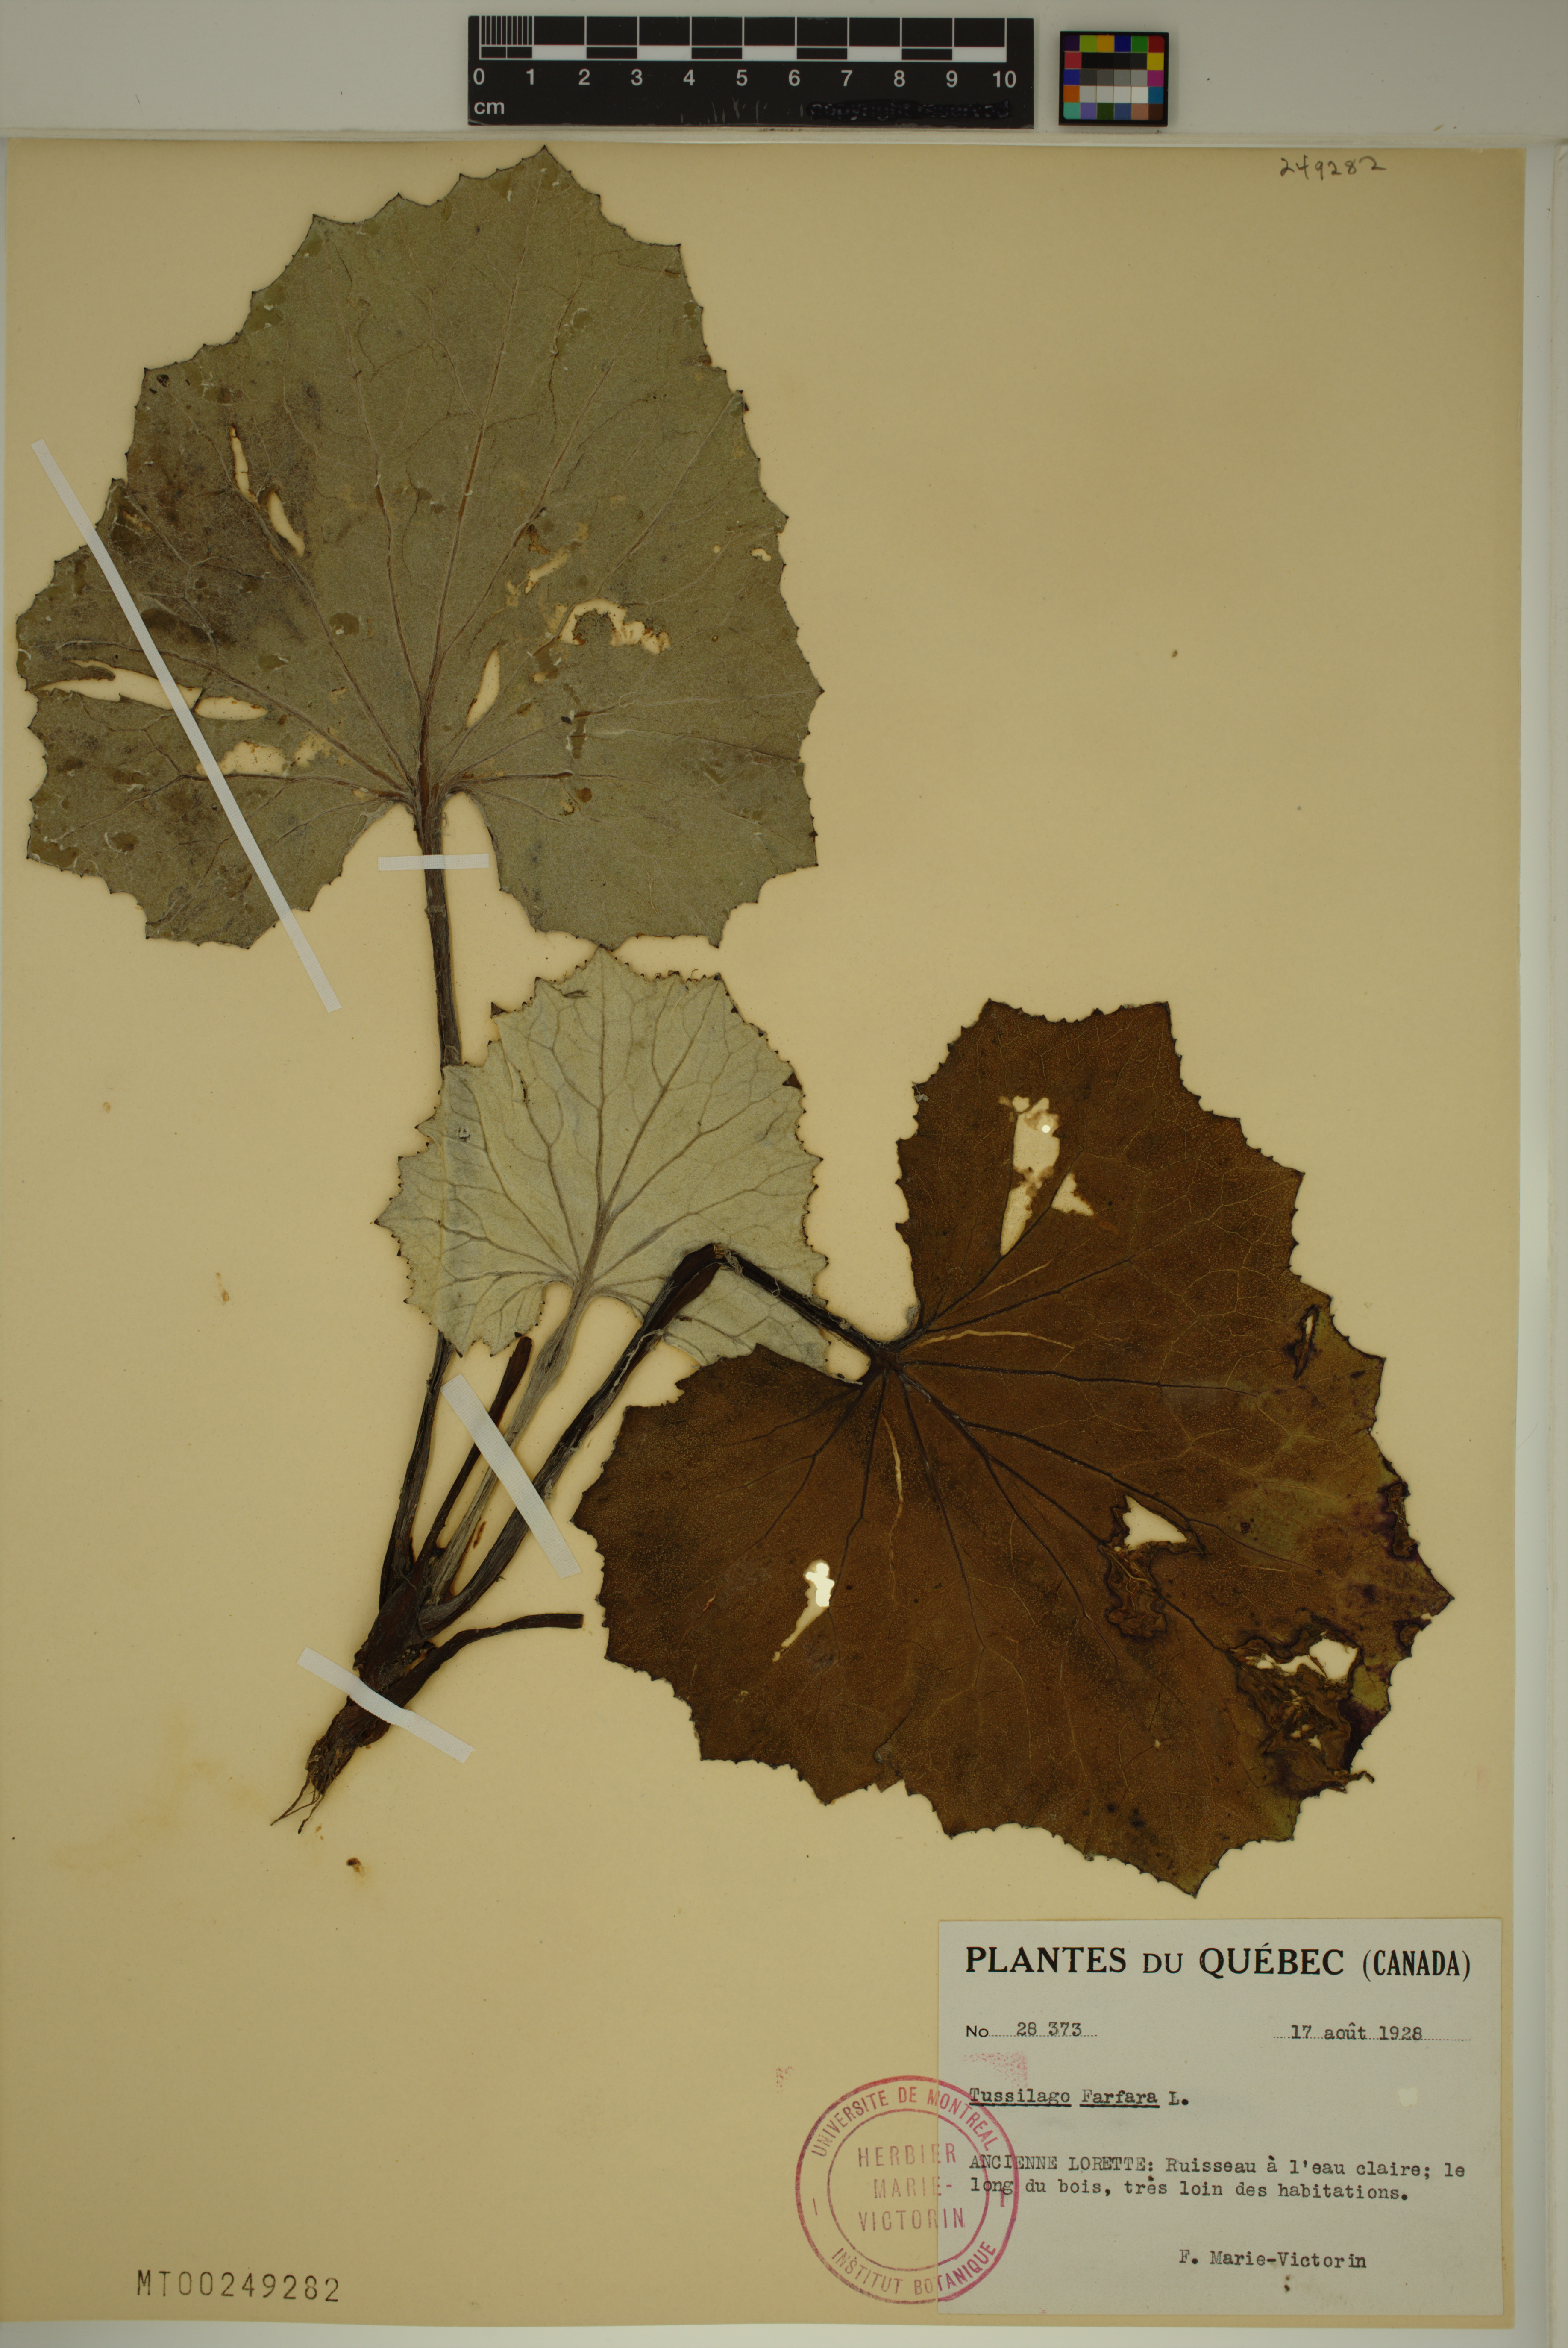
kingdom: Plantae
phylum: Tracheophyta
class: Magnoliopsida
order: Asterales
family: Asteraceae
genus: Tussilago
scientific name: Tussilago farfara
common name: Coltsfoot
